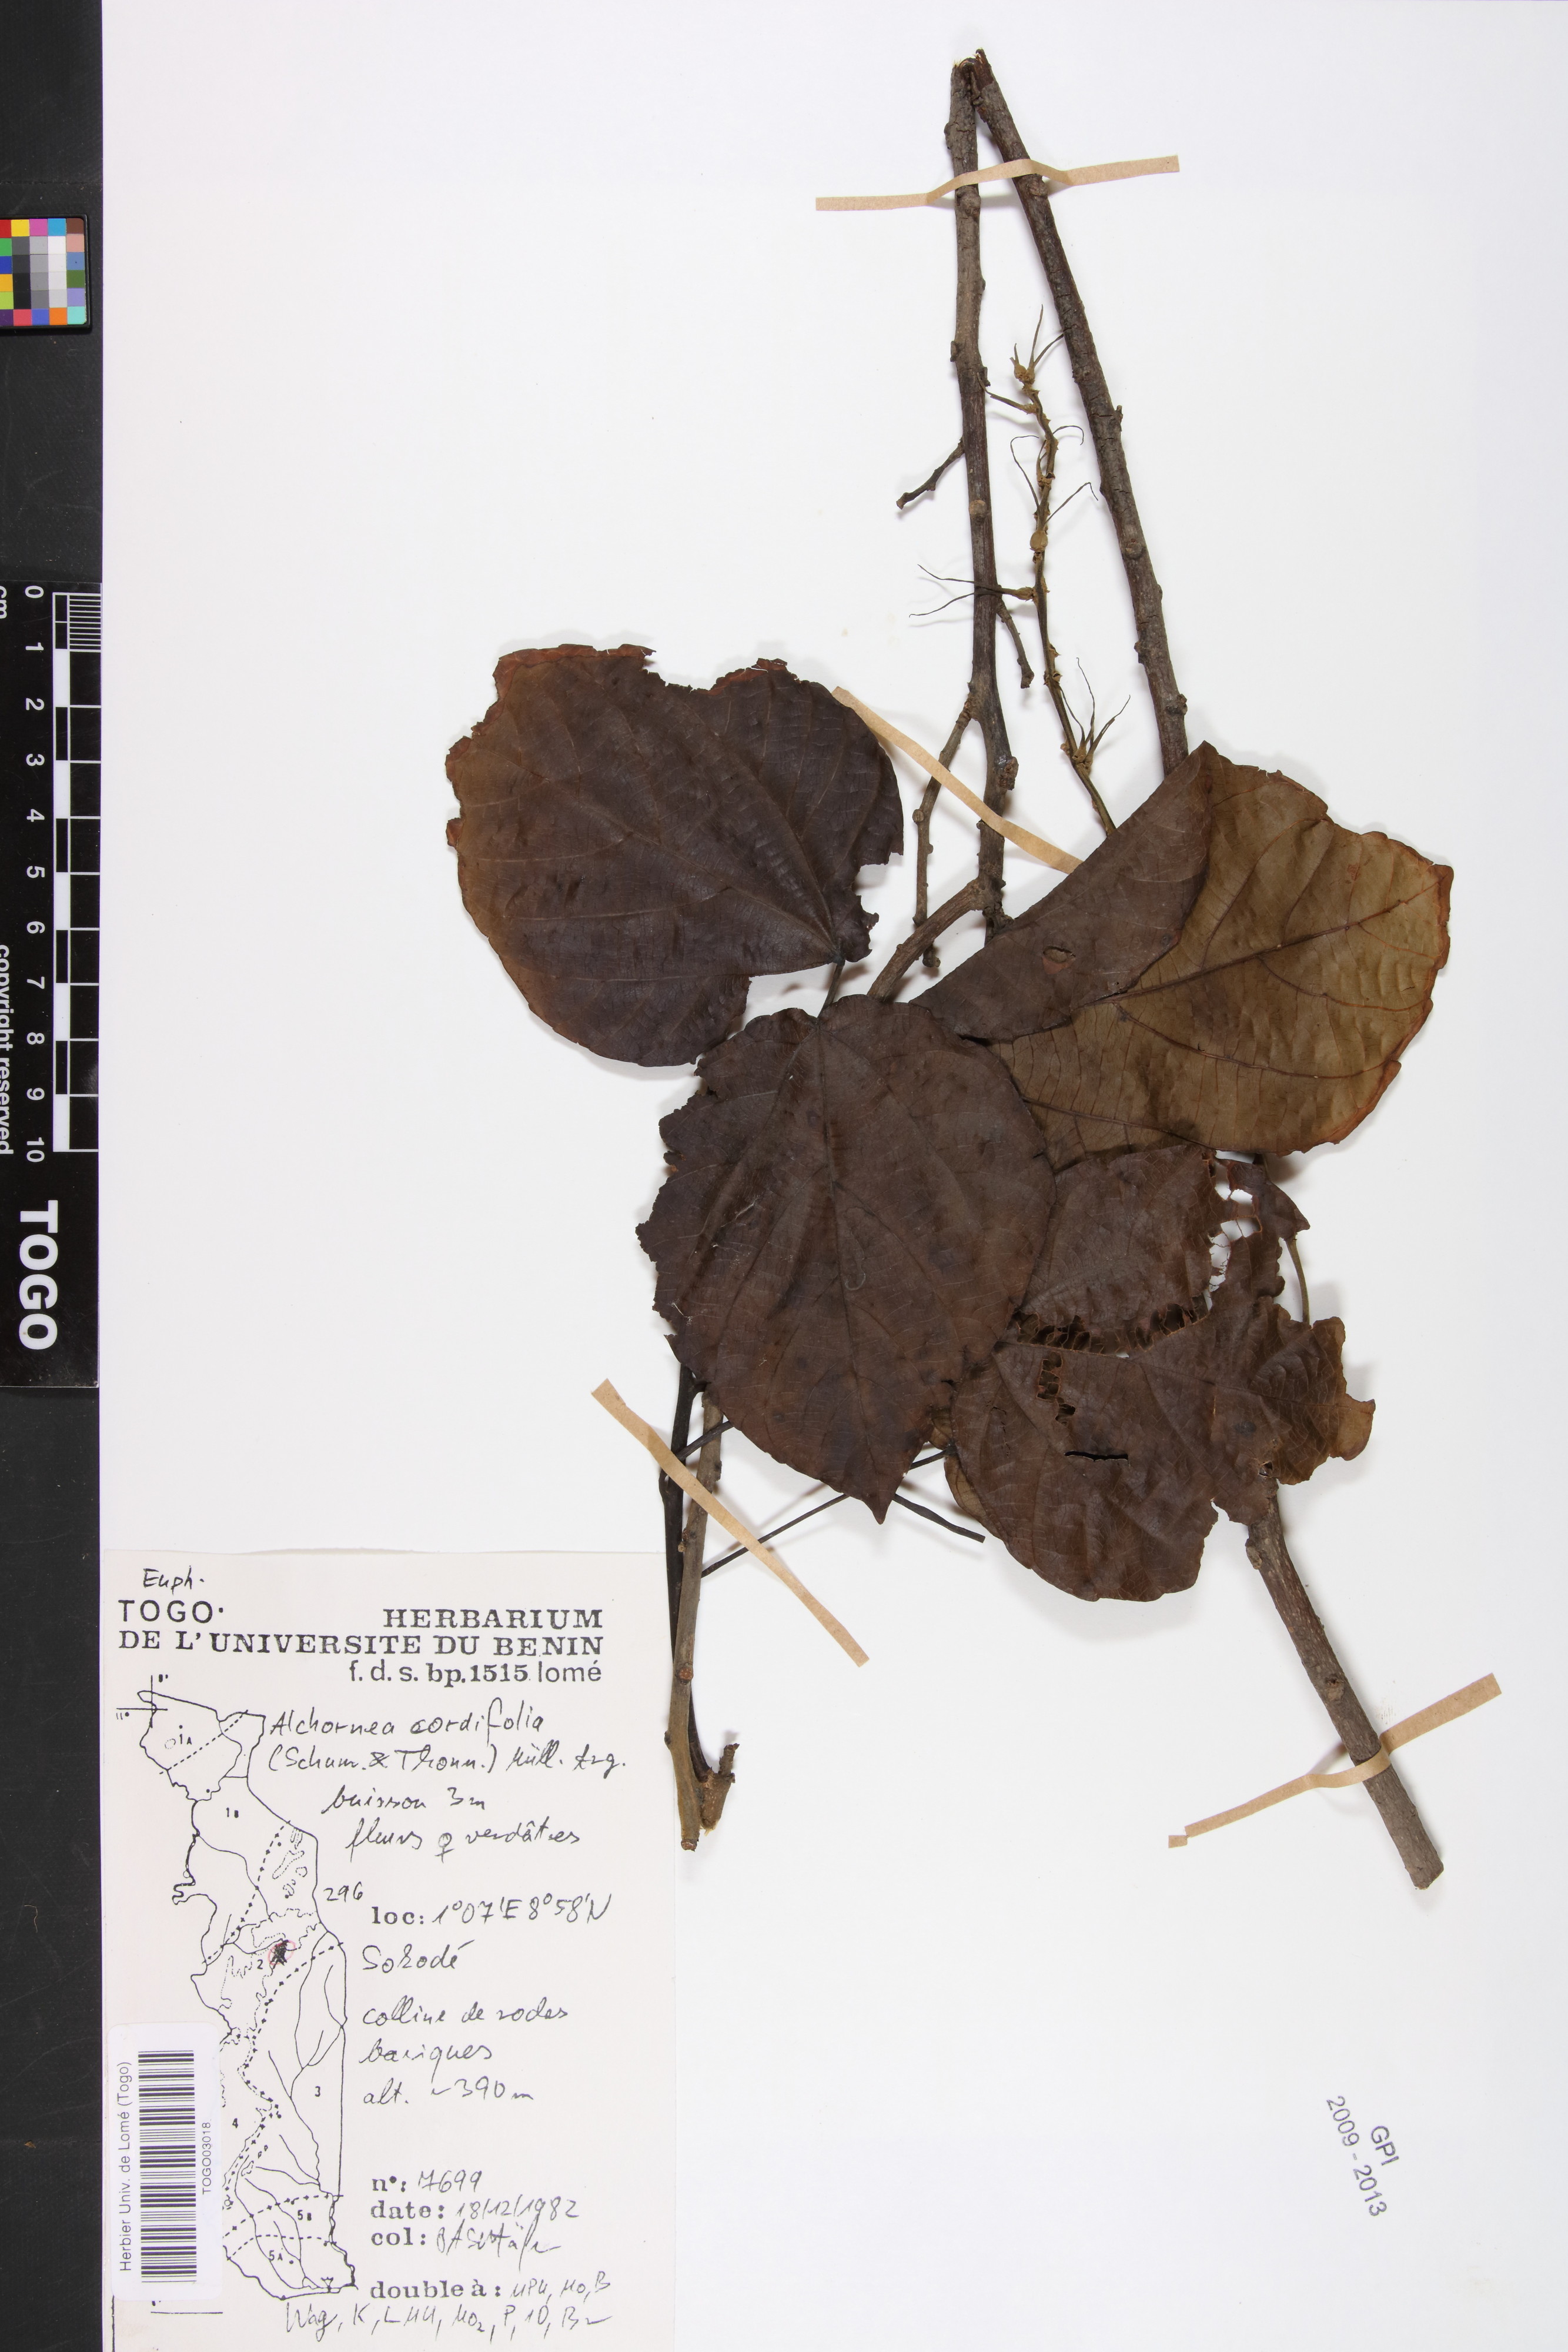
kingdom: Plantae
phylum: Tracheophyta
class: Magnoliopsida
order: Malpighiales
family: Euphorbiaceae
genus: Alchornea
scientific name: Alchornea cordifolia
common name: Christmasbush
